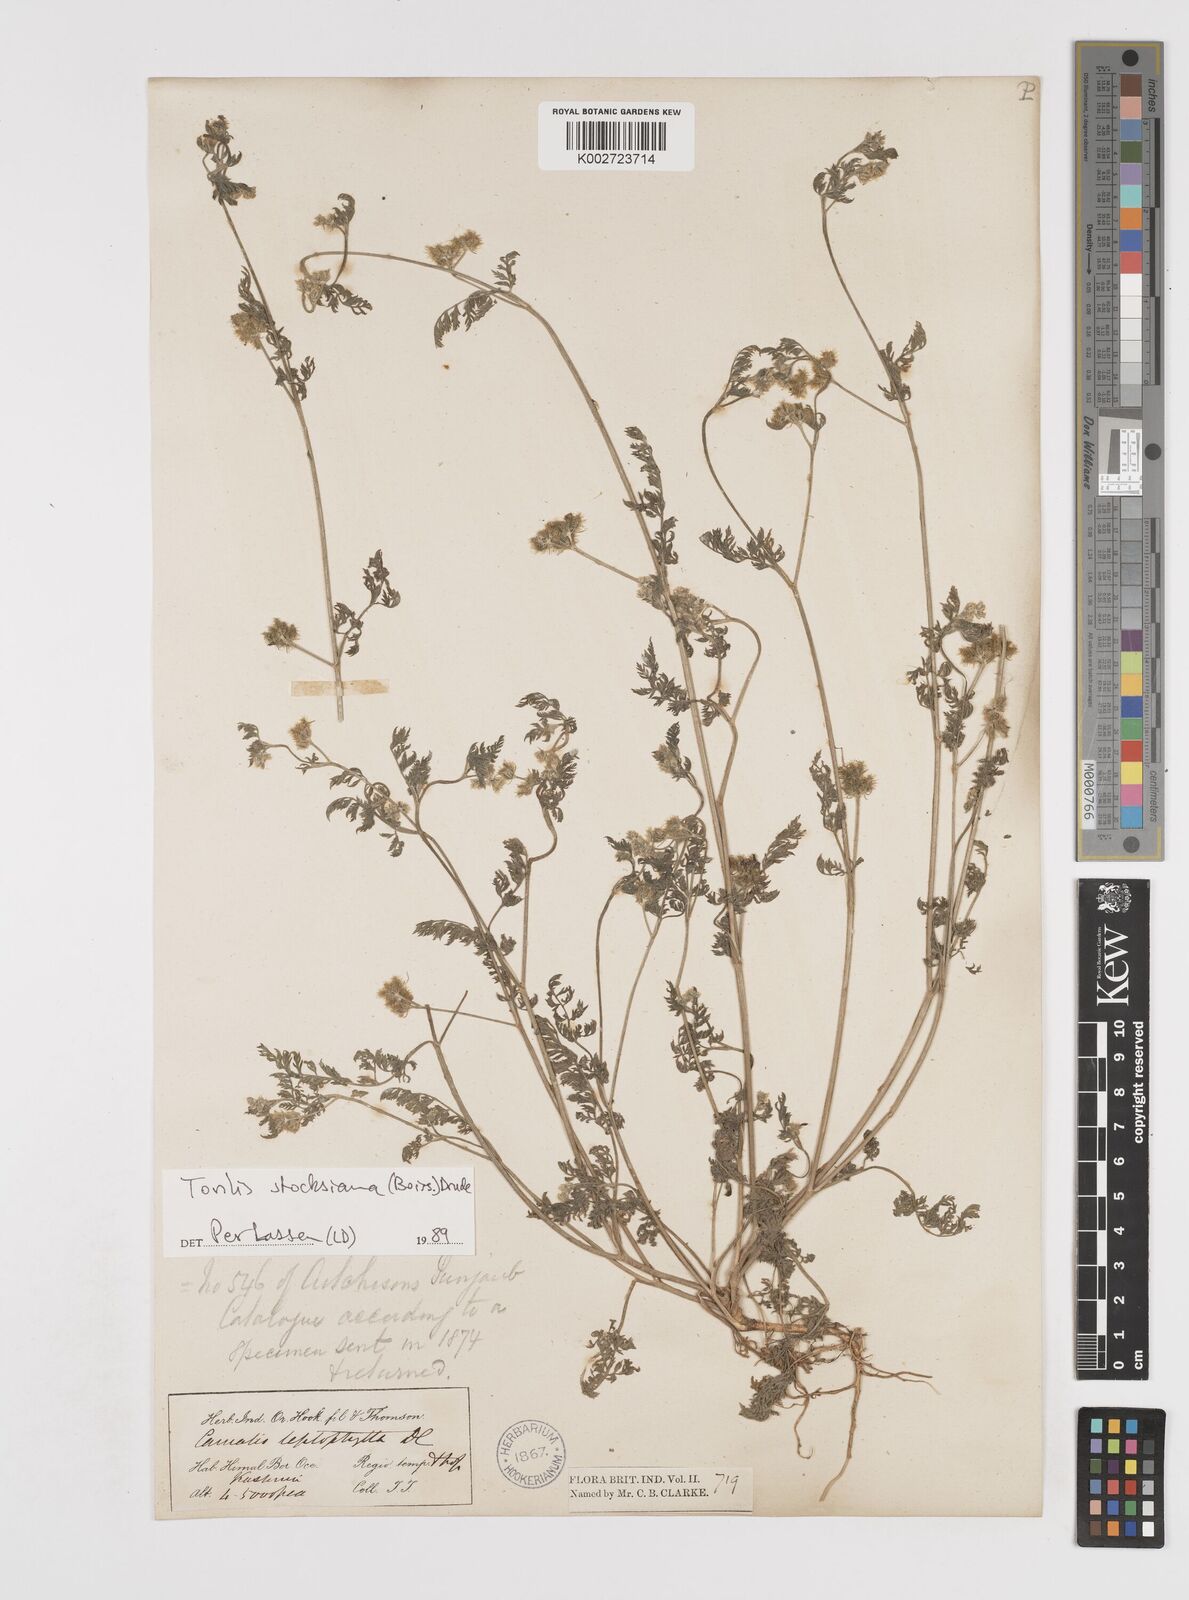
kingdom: Plantae
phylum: Tracheophyta
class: Magnoliopsida
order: Apiales
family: Apiaceae
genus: Torilis
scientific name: Torilis stocksiana
